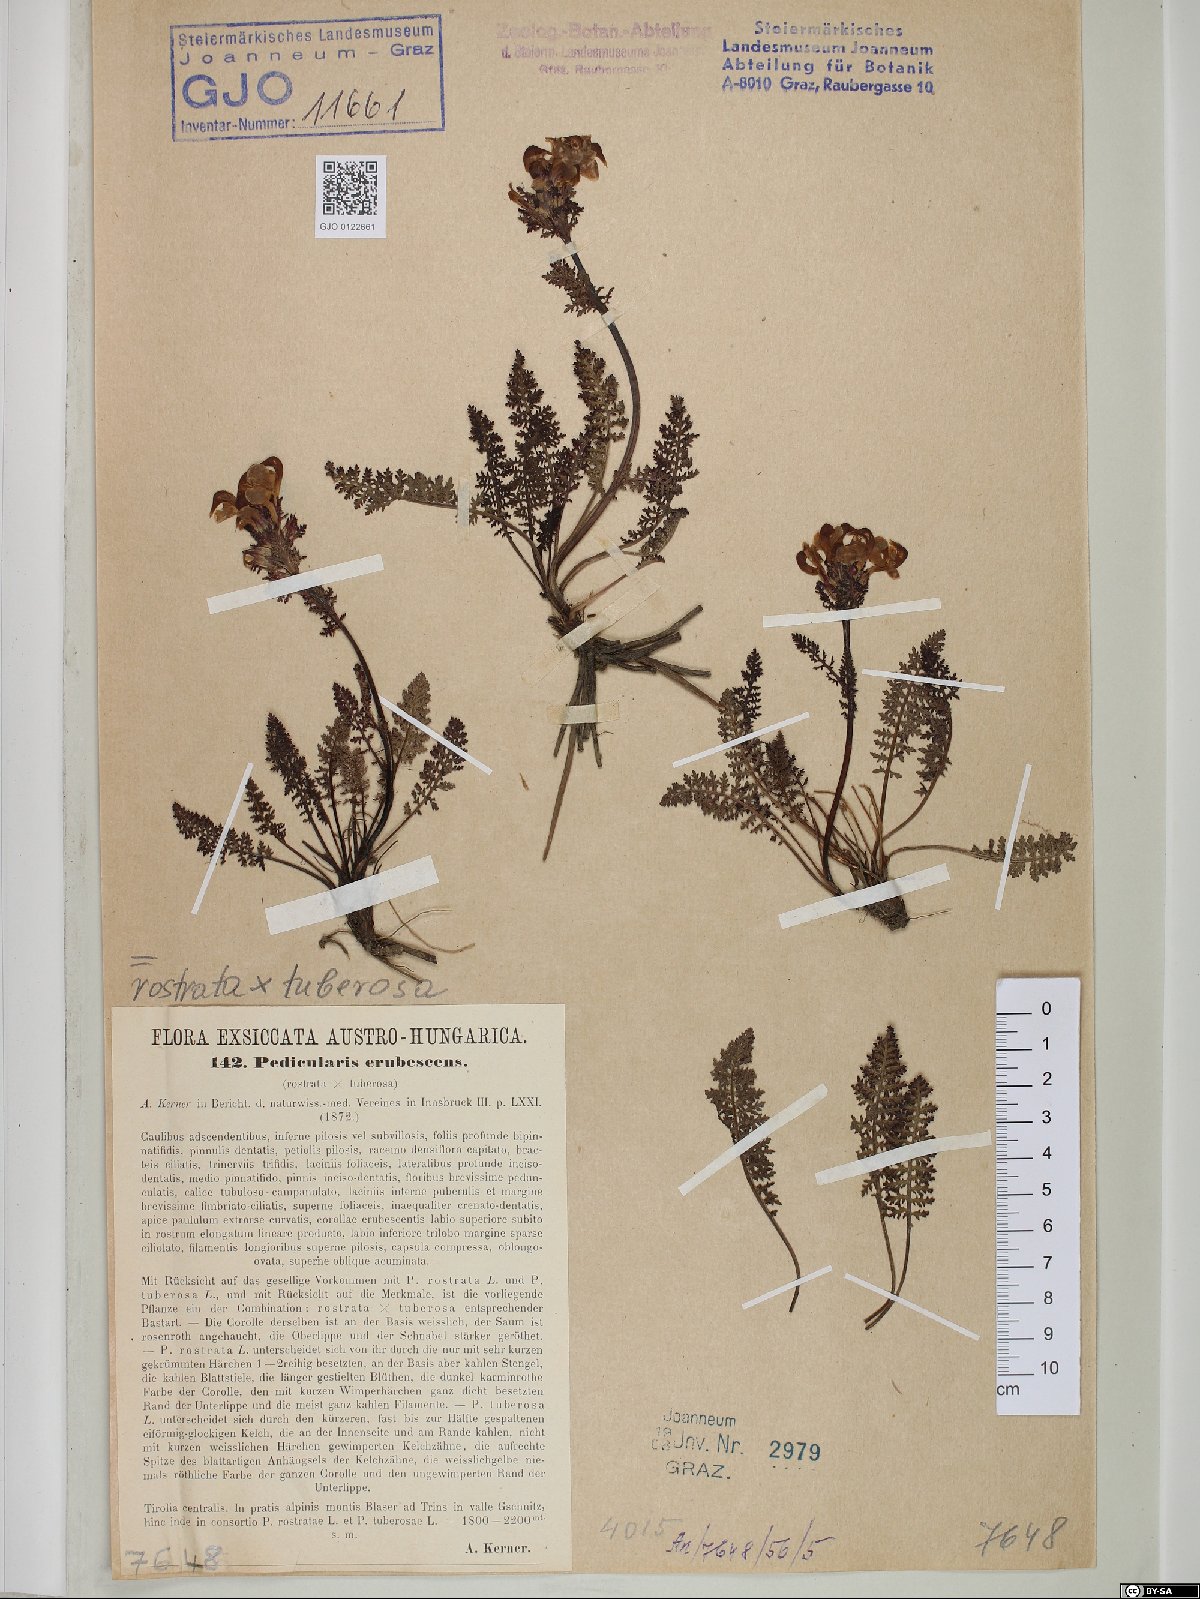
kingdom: Plantae
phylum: Tracheophyta
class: Magnoliopsida
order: Lamiales
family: Scrophulariaceae
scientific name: Scrophulariaceae
